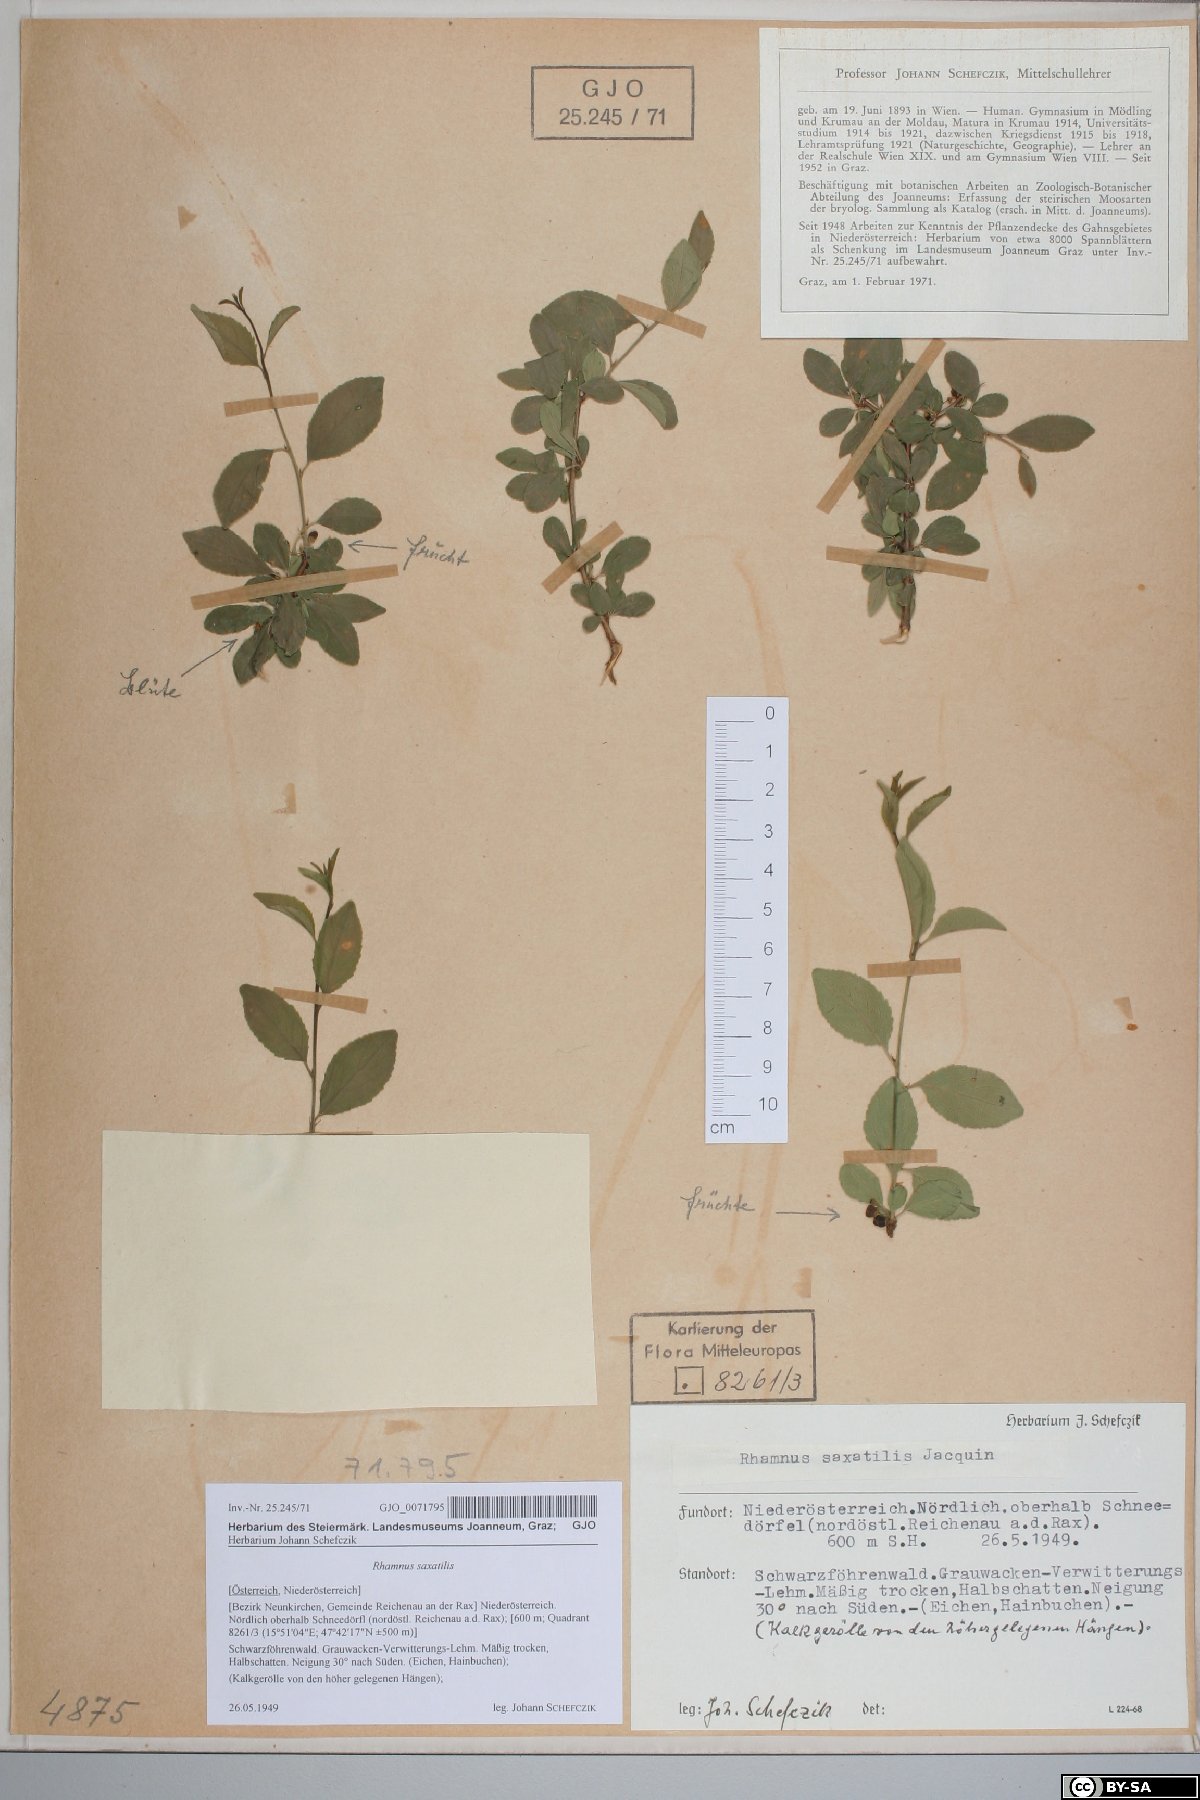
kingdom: Plantae
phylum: Tracheophyta
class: Magnoliopsida
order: Rosales
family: Rhamnaceae
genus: Rhamnus
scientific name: Rhamnus saxatilis
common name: Rock buckthorn
